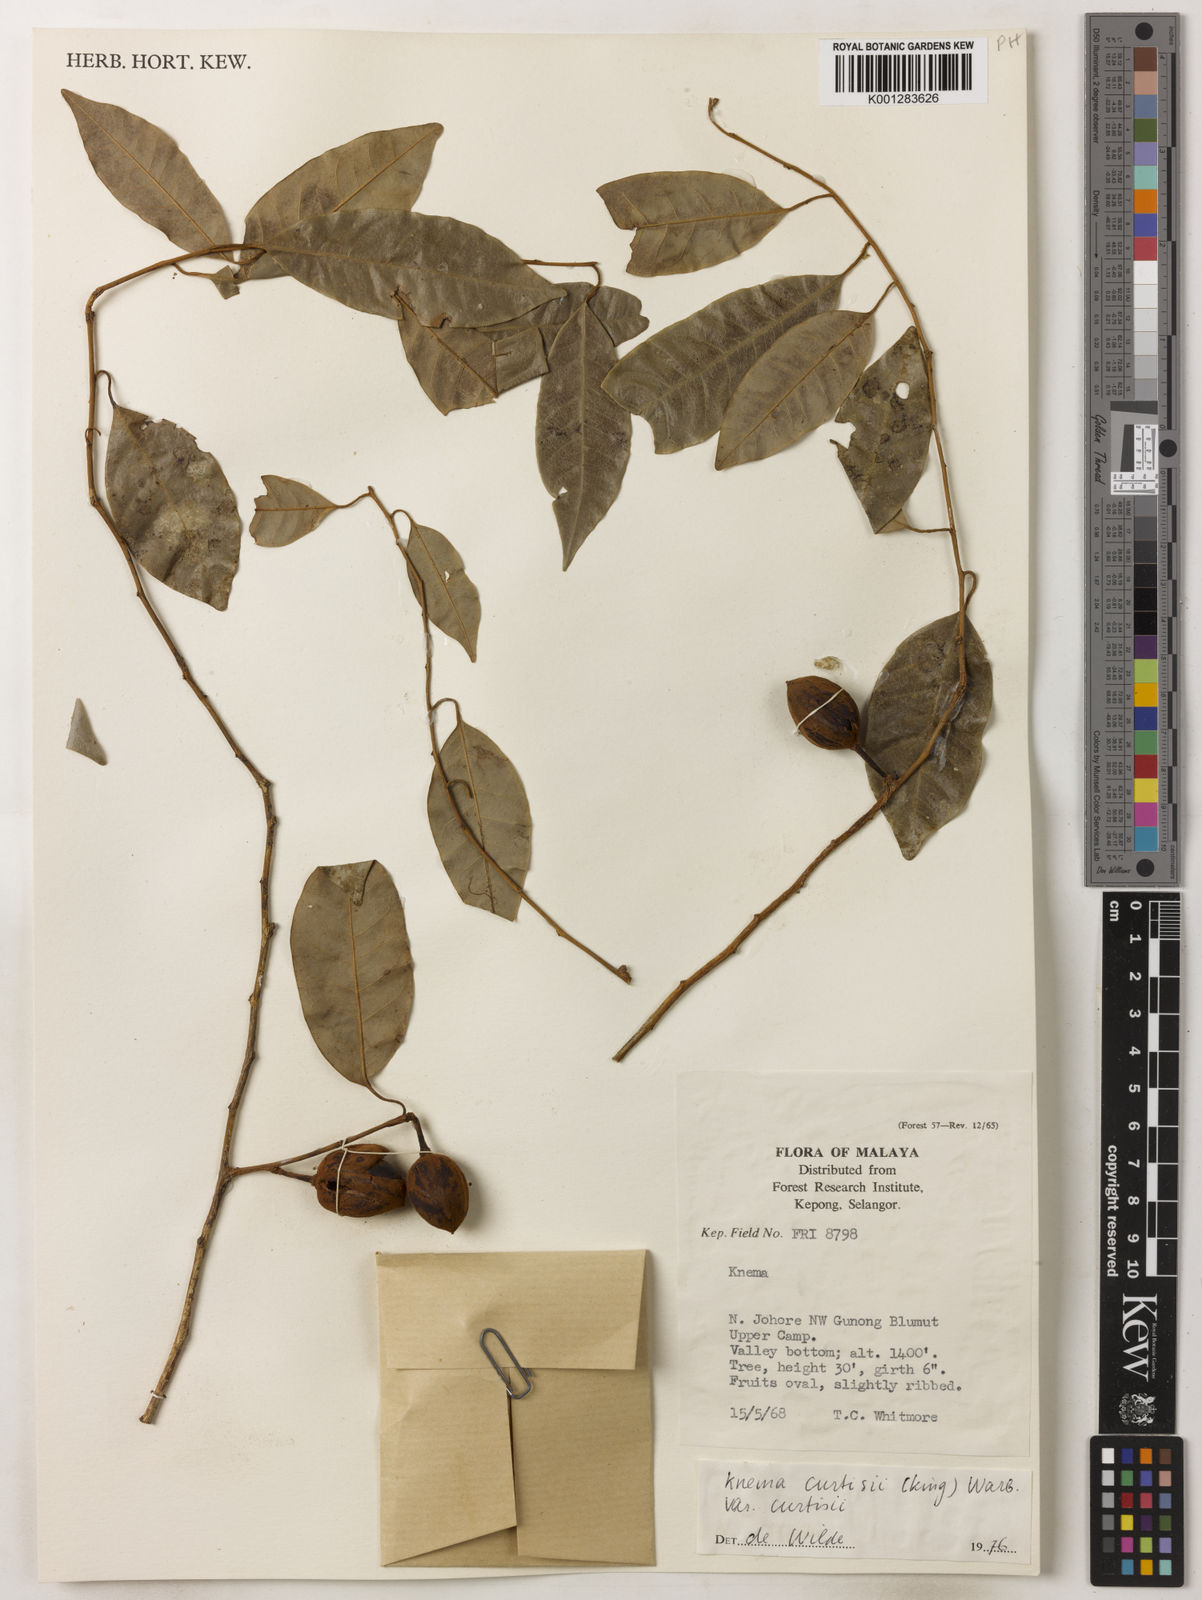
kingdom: Plantae
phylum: Tracheophyta
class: Magnoliopsida
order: Magnoliales
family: Myristicaceae
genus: Knema
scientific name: Knema curtisii
